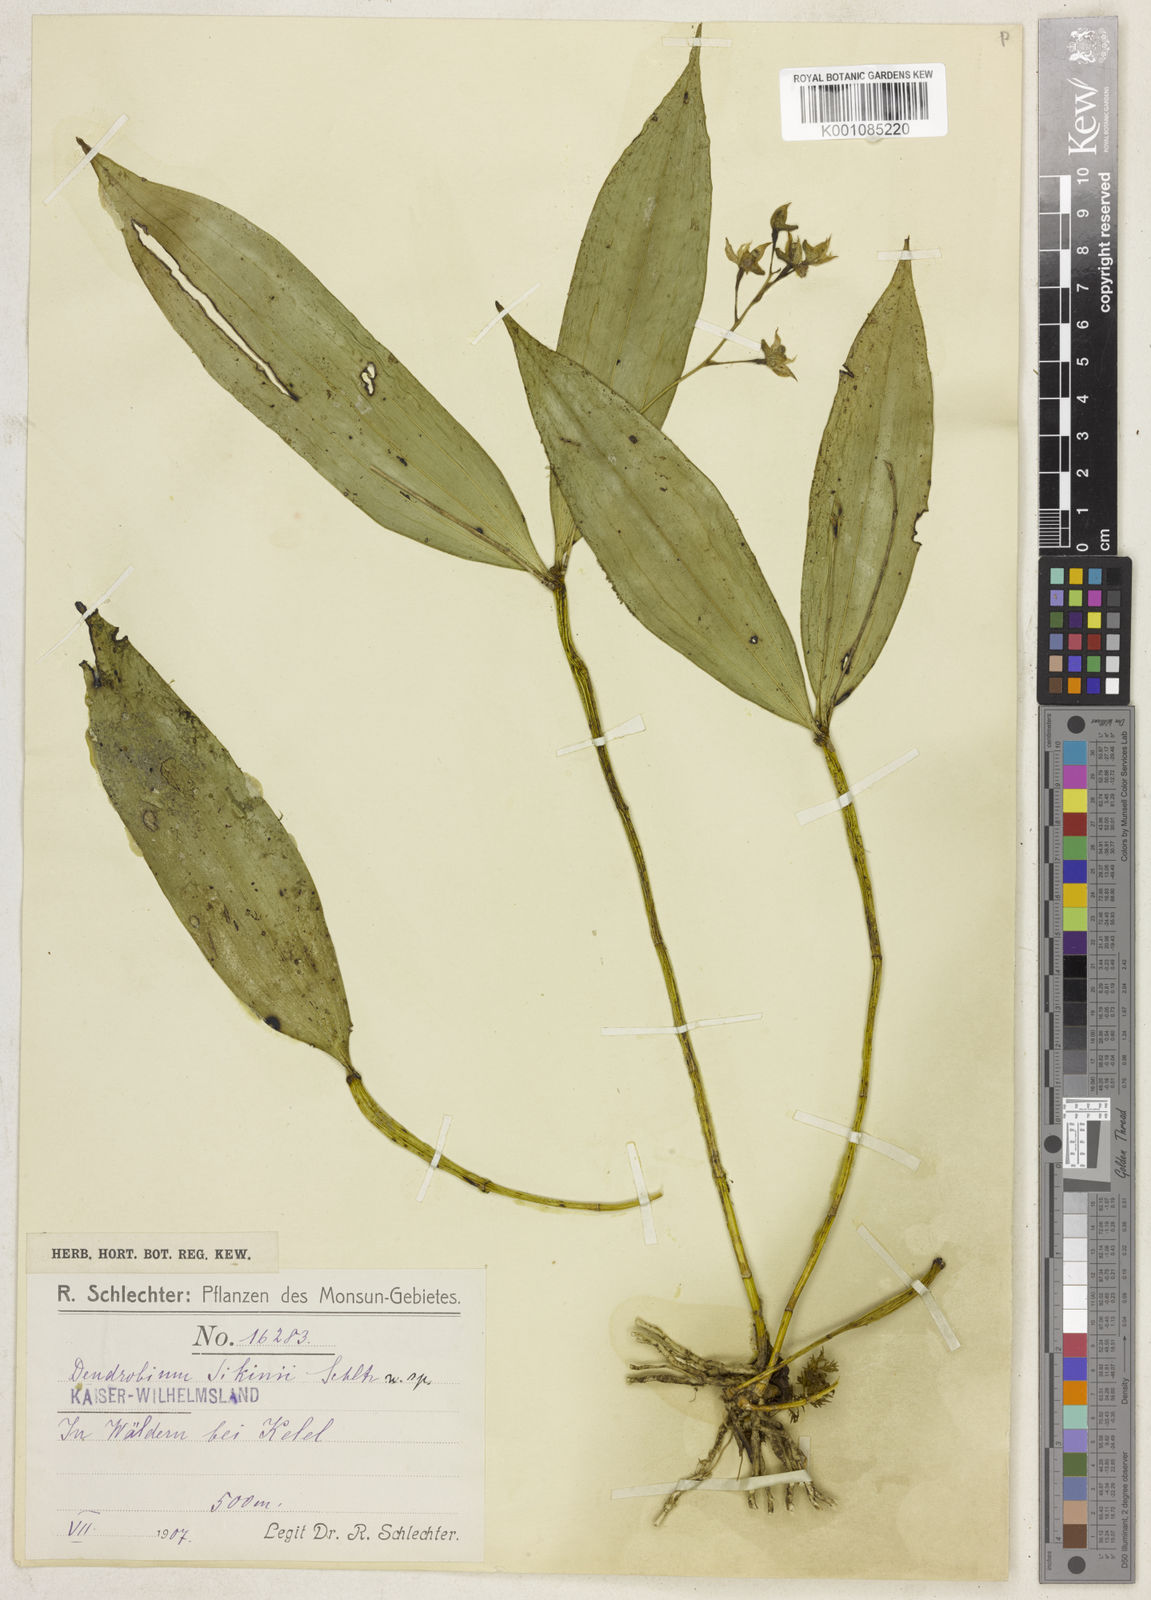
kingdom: Plantae
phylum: Tracheophyta
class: Liliopsida
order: Asparagales
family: Orchidaceae
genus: Dendrobium
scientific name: Dendrobium subquadratum
